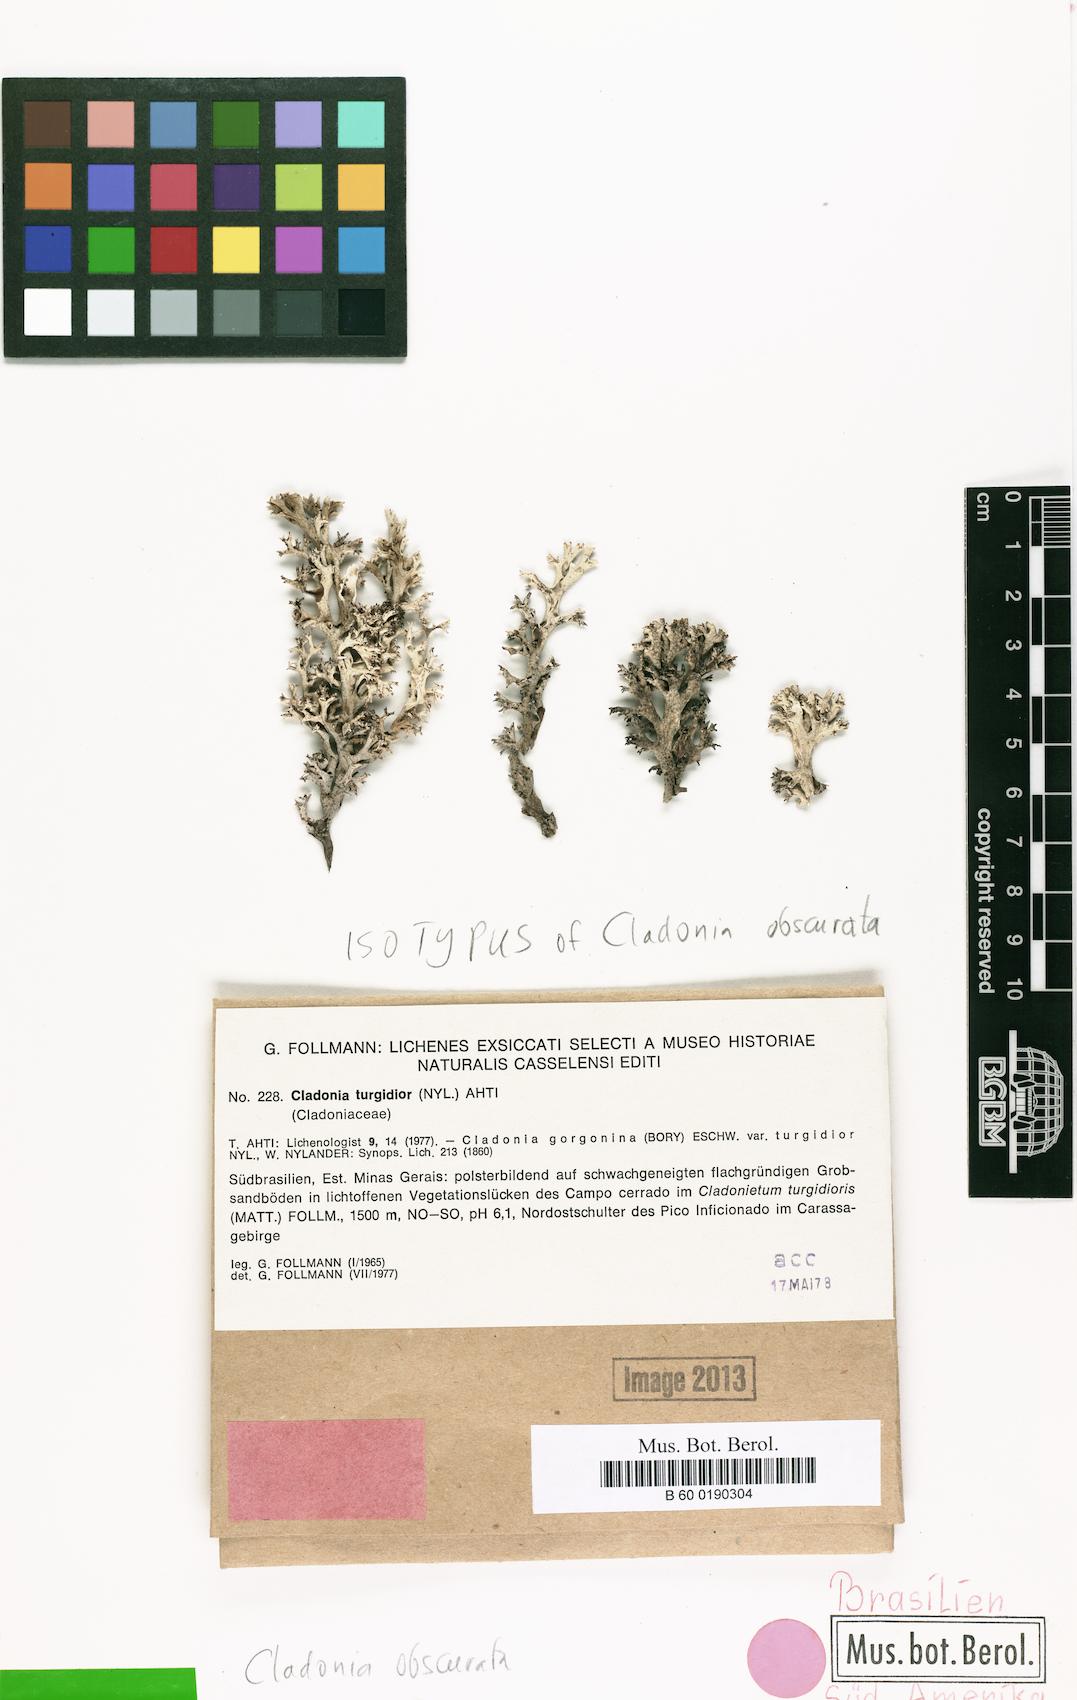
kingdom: Fungi
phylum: Ascomycota
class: Lecanoromycetes
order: Lecanorales
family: Cladoniaceae
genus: Cladonia
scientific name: Cladonia obscurata
